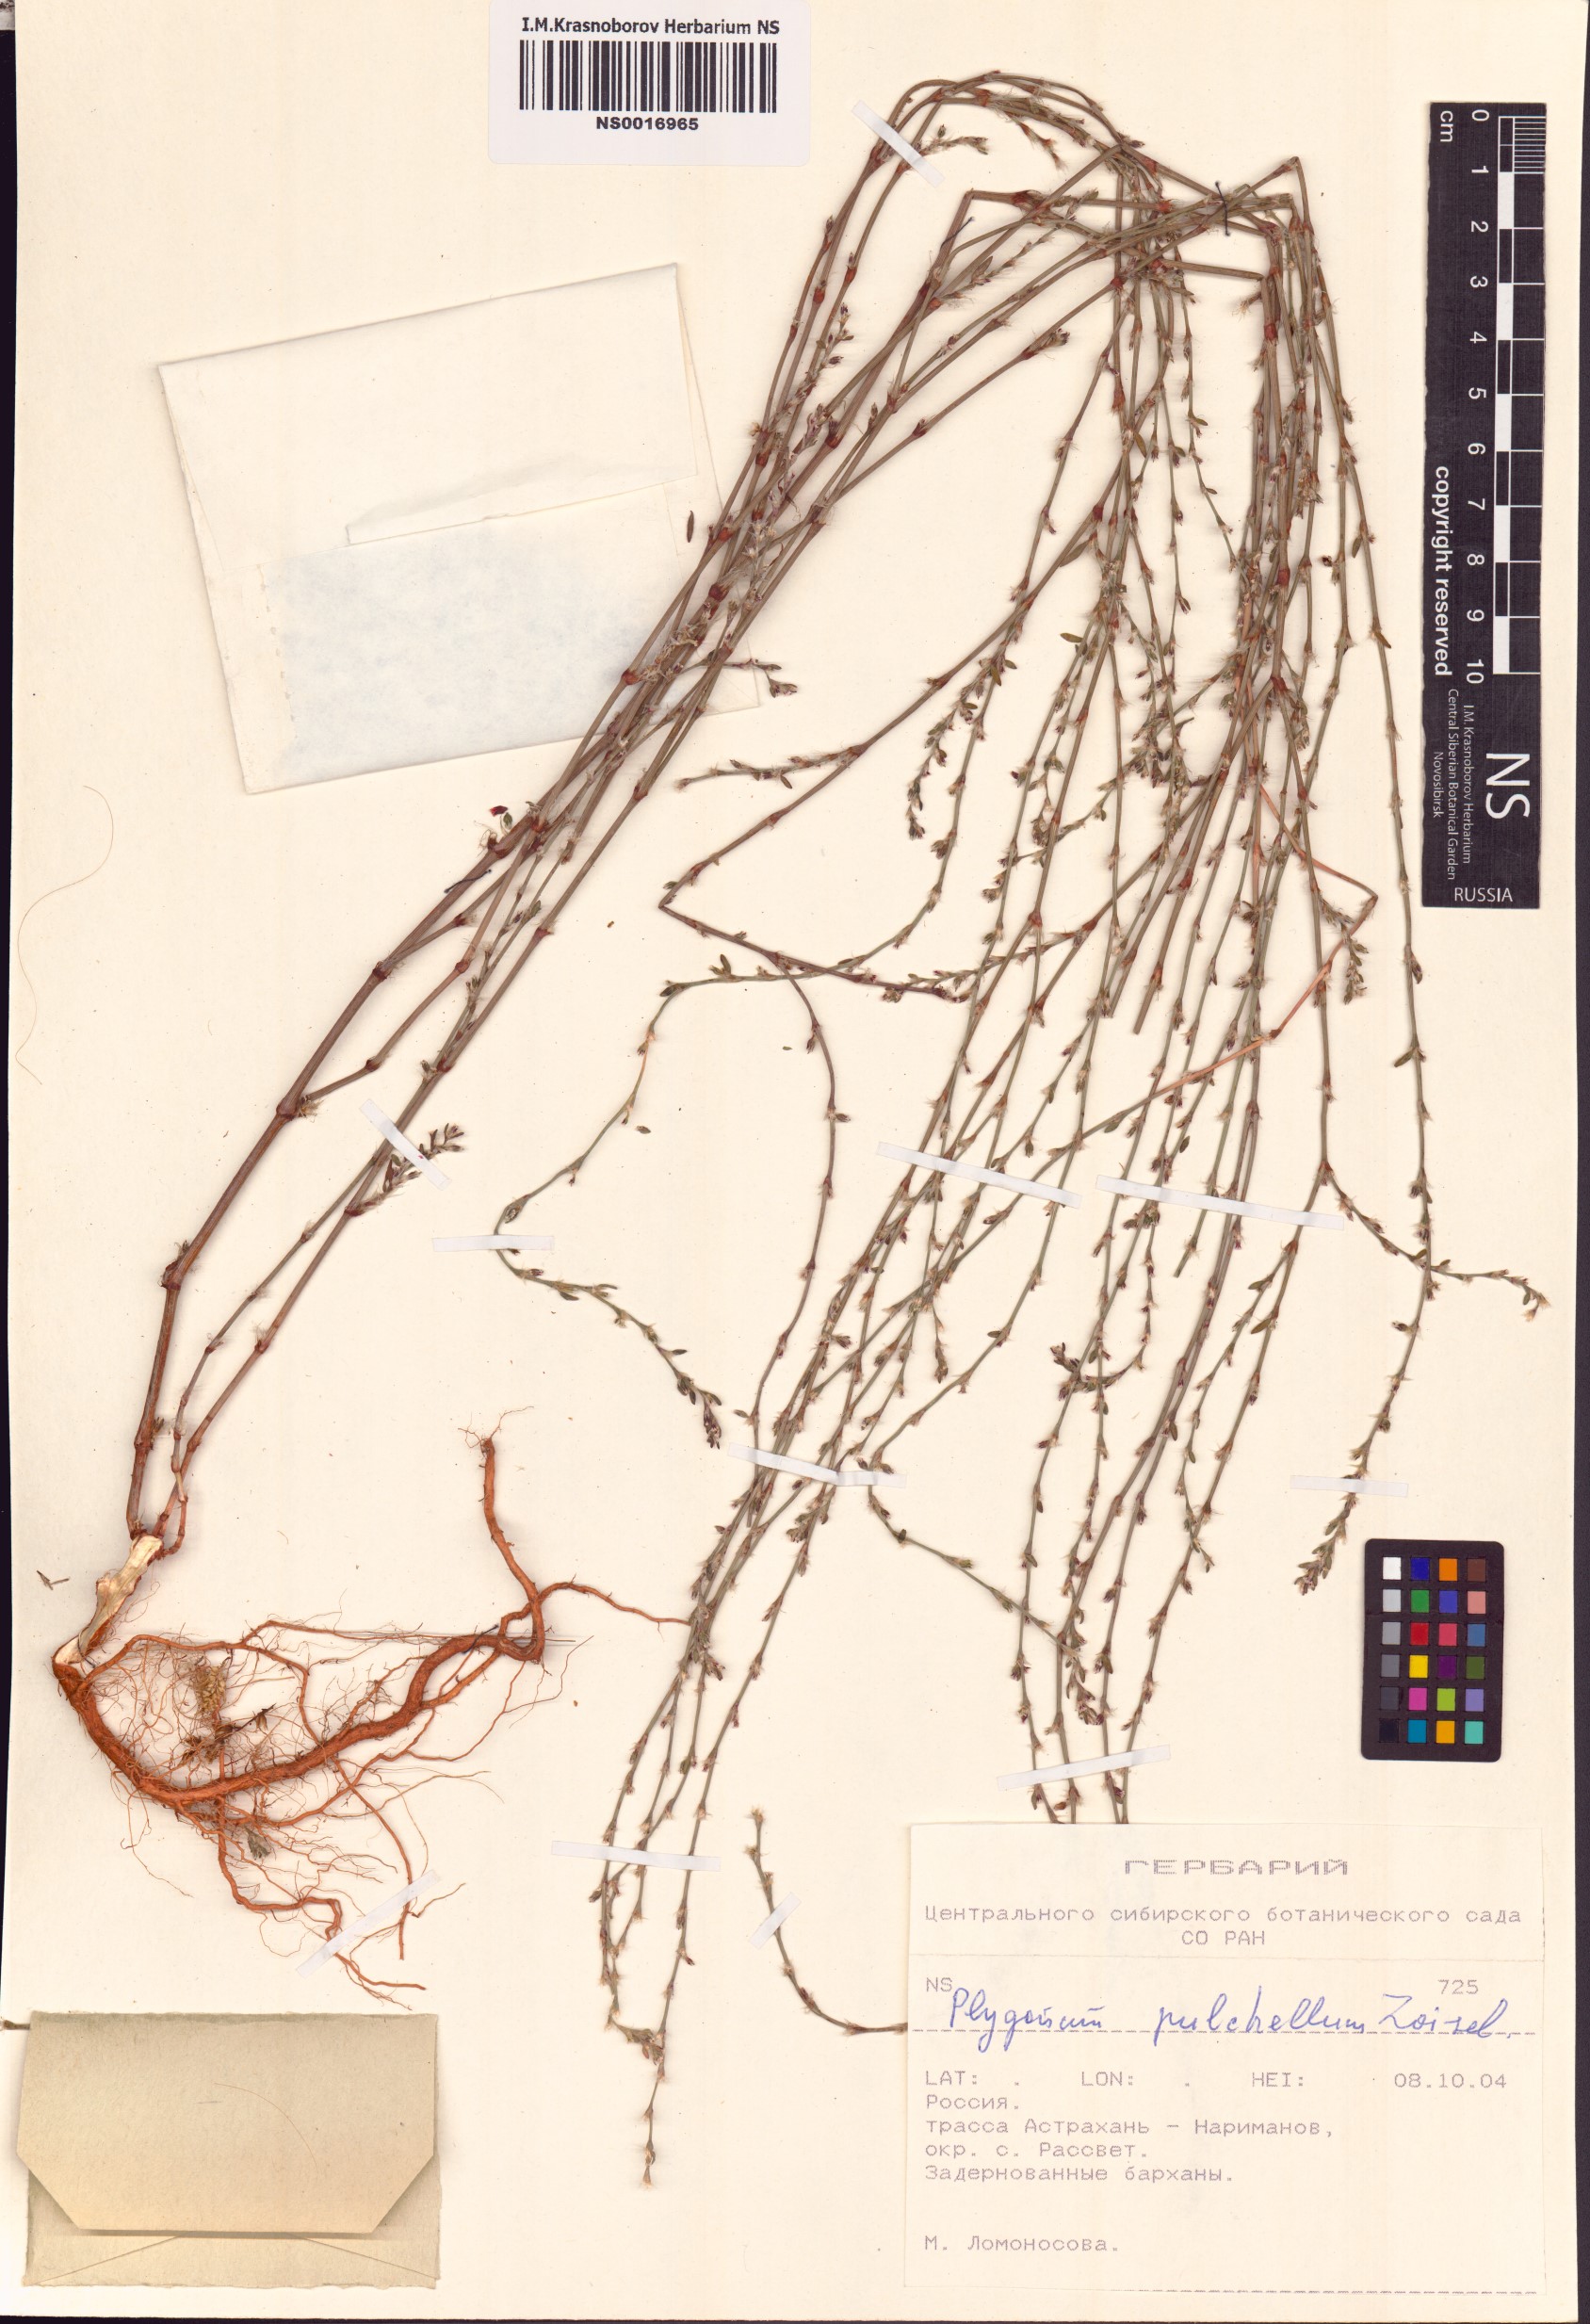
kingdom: Plantae
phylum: Tracheophyta
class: Magnoliopsida
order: Caryophyllales
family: Polygonaceae
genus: Polygonum
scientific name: Polygonum arenarium
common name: Lesser red-knotgrass
